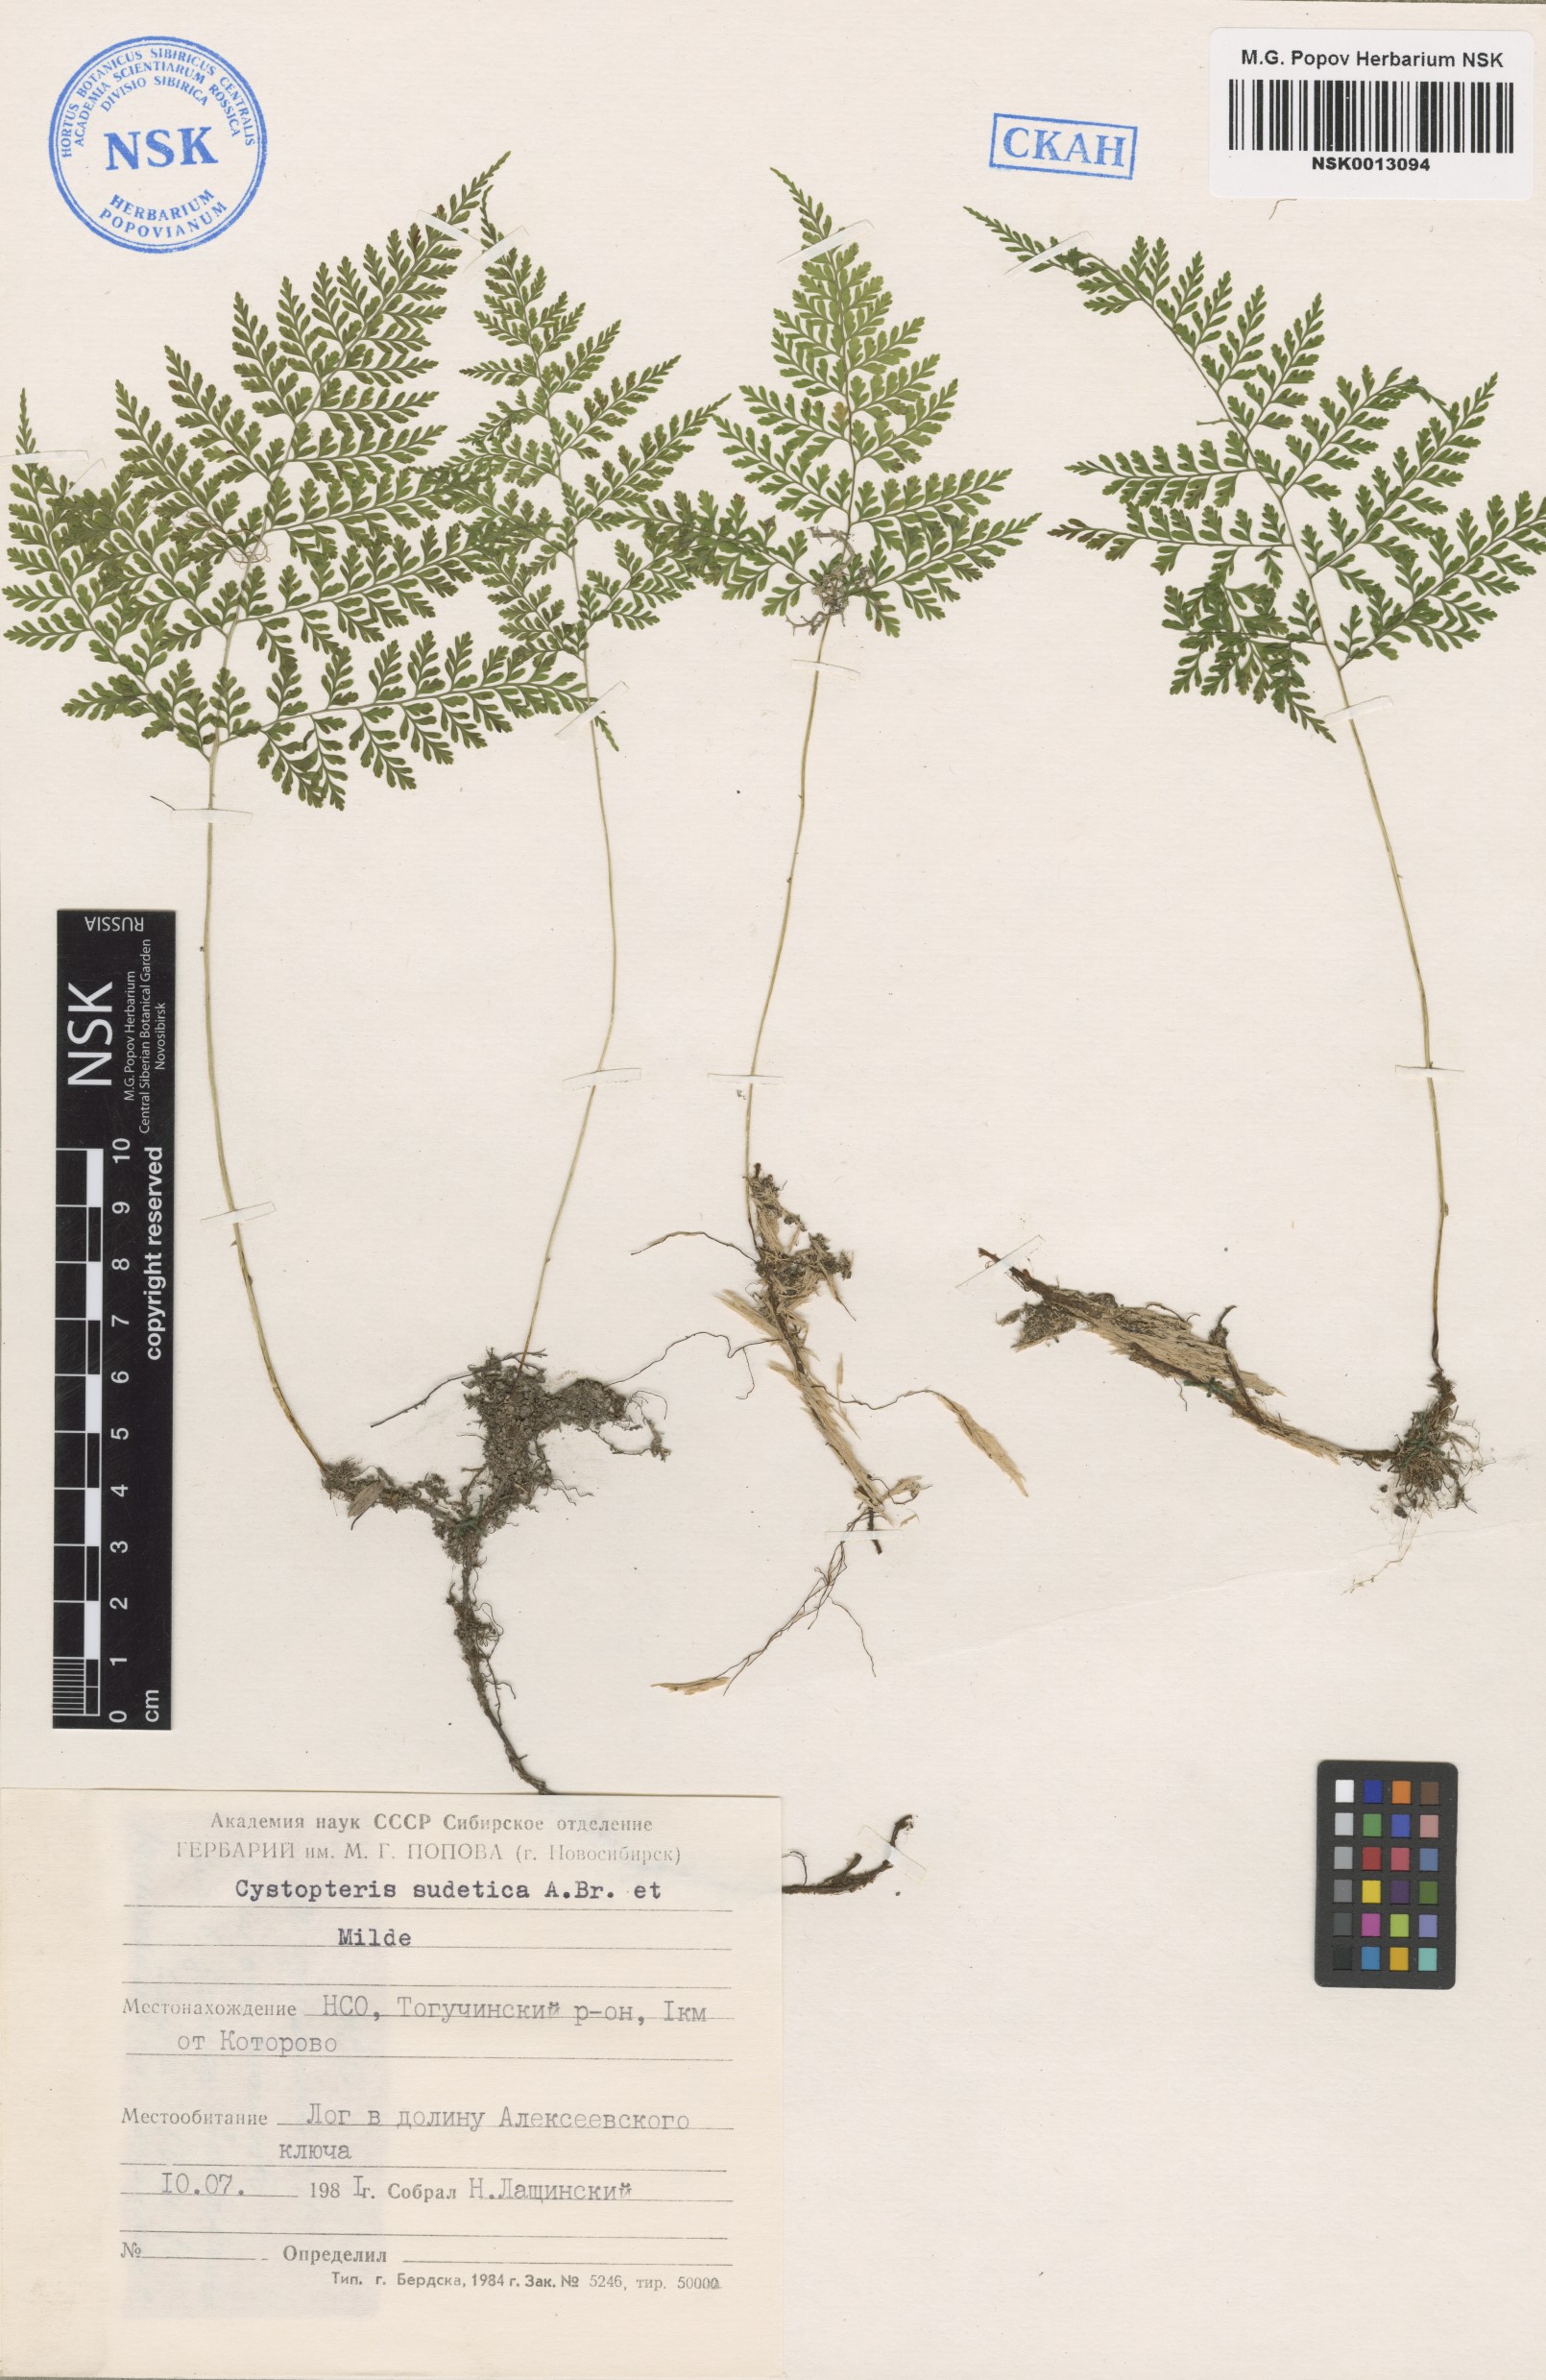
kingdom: Plantae
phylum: Tracheophyta
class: Polypodiopsida
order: Polypodiales
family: Cystopteridaceae
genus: Cystopteris
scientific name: Cystopteris sudetica
